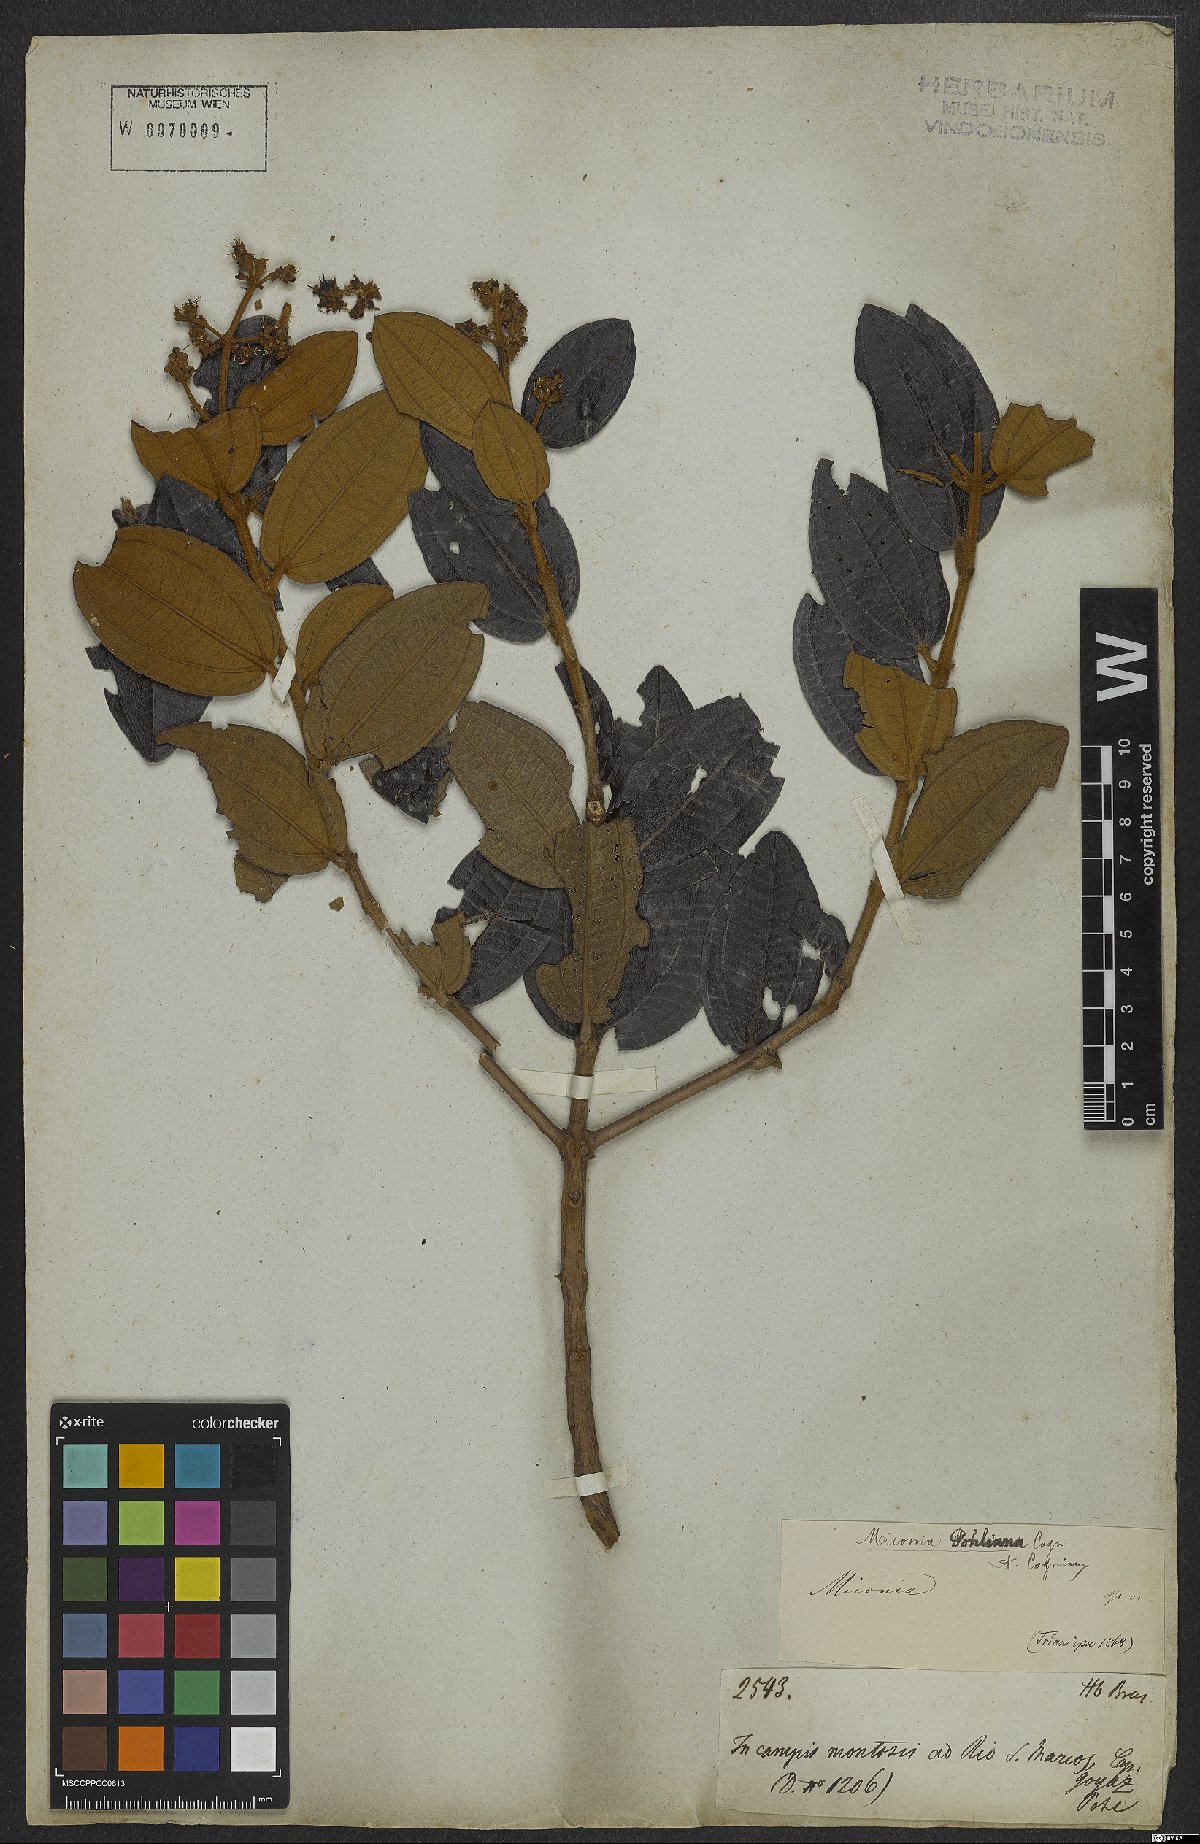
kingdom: Plantae
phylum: Tracheophyta
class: Magnoliopsida
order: Myrtales
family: Melastomataceae
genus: Miconia
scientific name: Miconia leucocarpa
